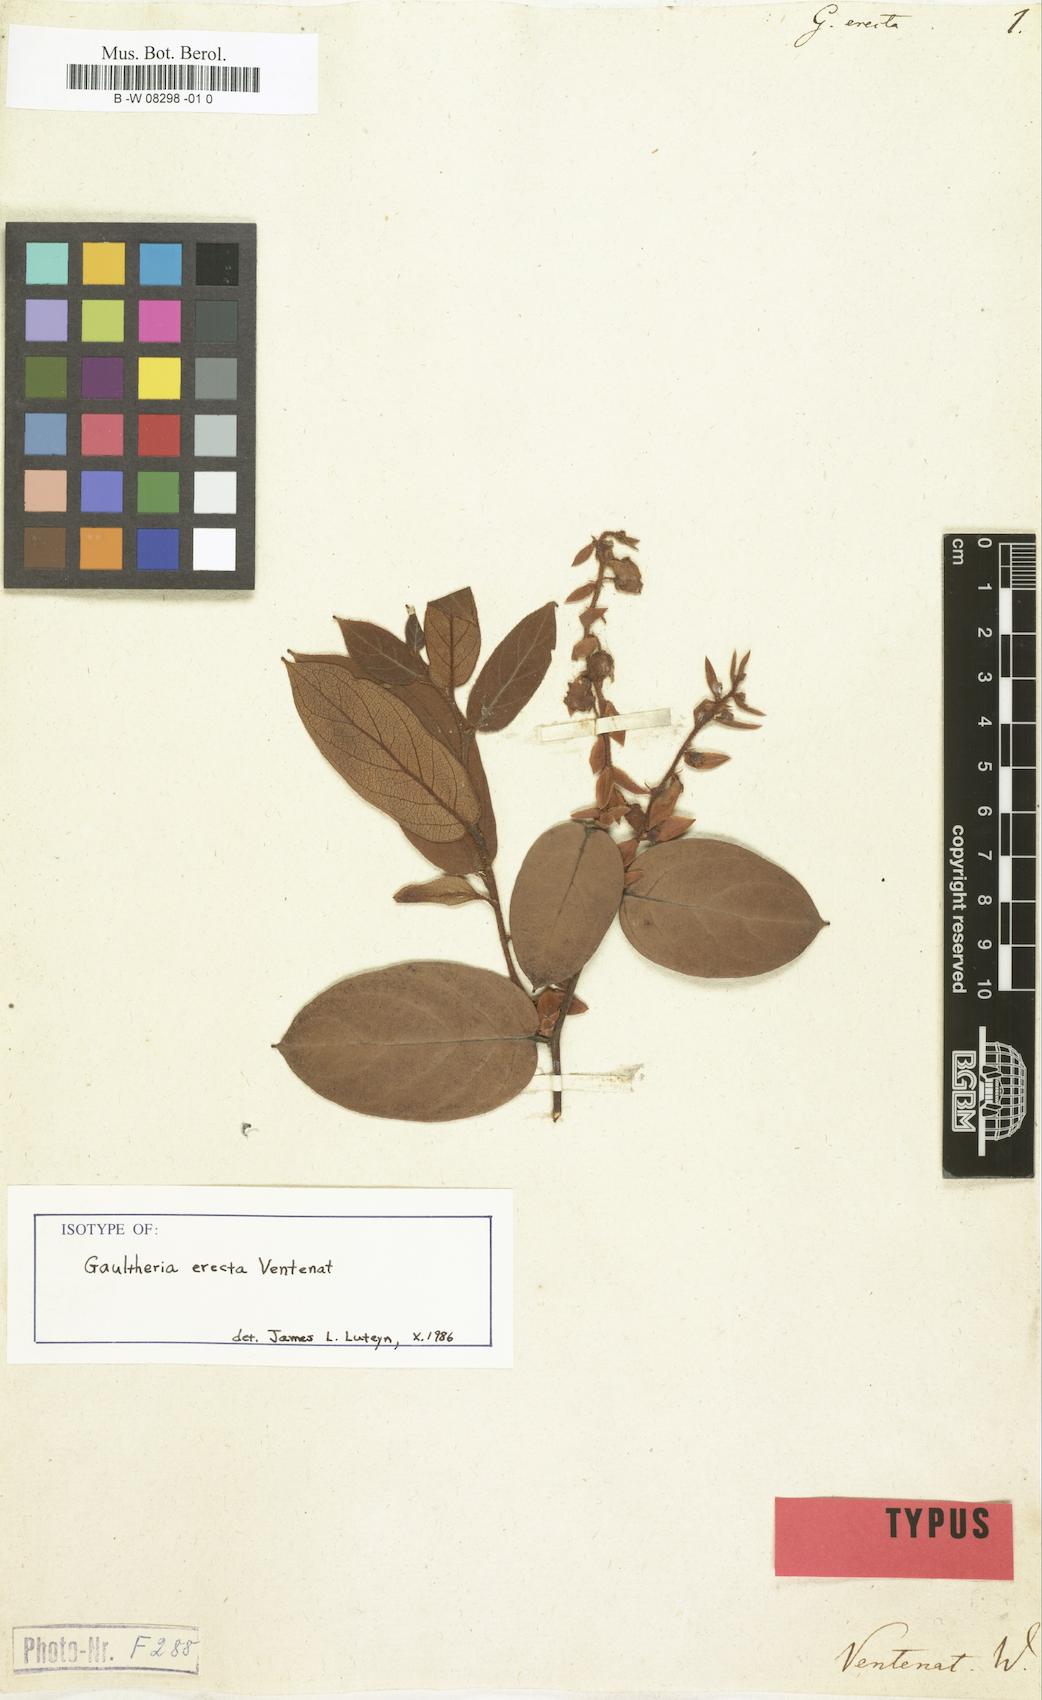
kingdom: Plantae
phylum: Tracheophyta
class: Magnoliopsida
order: Ericales
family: Ericaceae
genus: Gaultheria
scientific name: Gaultheria erecta
